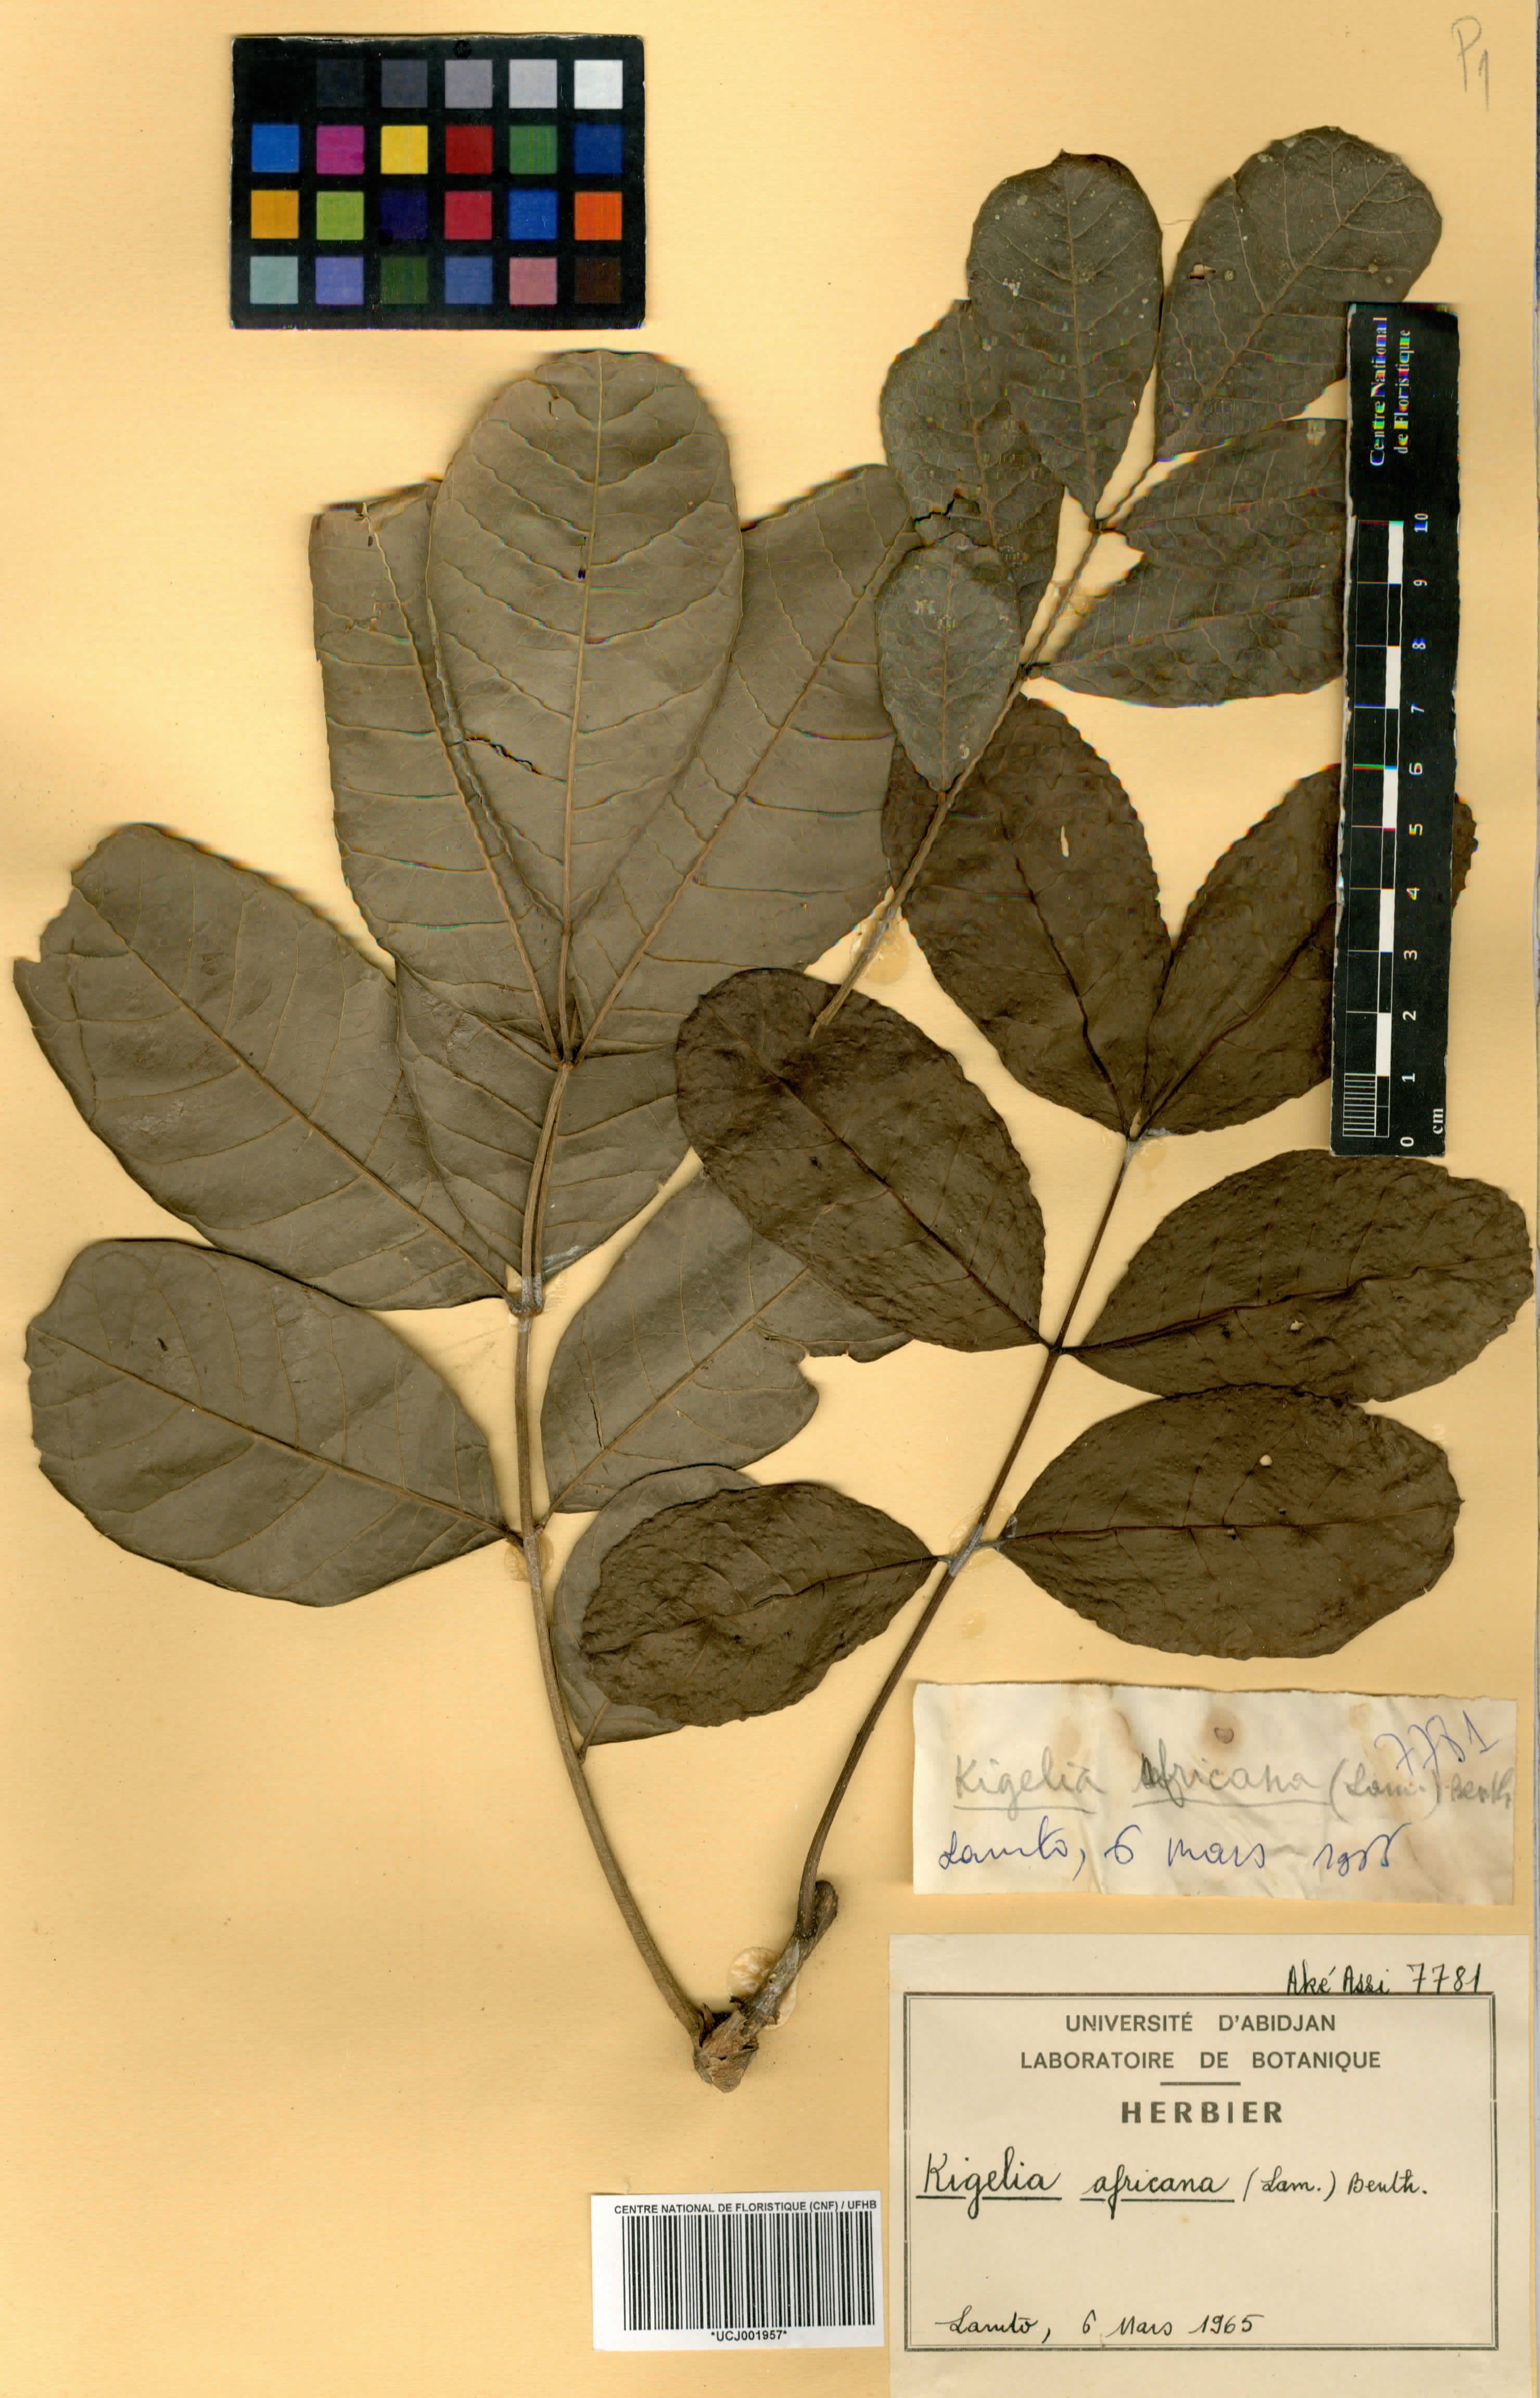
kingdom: Plantae
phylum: Tracheophyta
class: Magnoliopsida
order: Lamiales
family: Bignoniaceae
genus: Kigelia
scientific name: Kigelia africana
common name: Sausage tree
